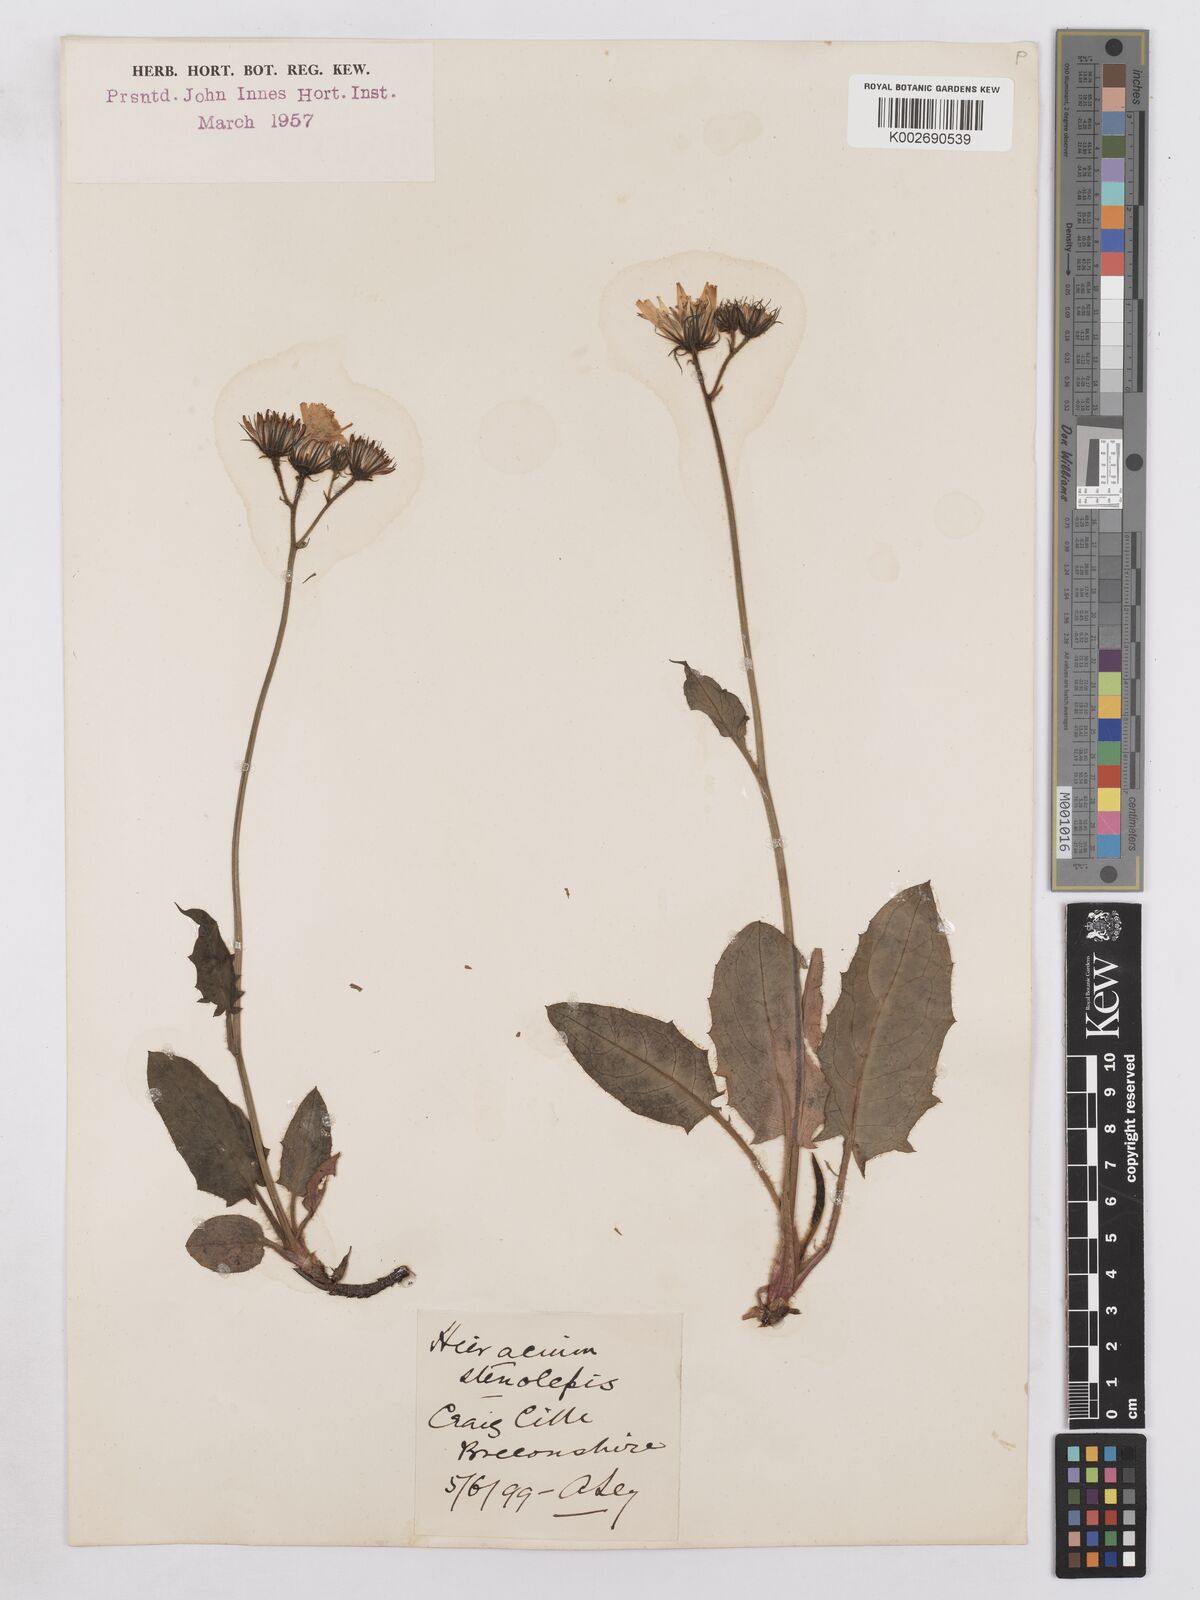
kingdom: Plantae
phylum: Tracheophyta
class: Magnoliopsida
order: Asterales
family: Asteraceae
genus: Hieracium
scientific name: Hieracium basalticola
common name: Basalt hawkweed
